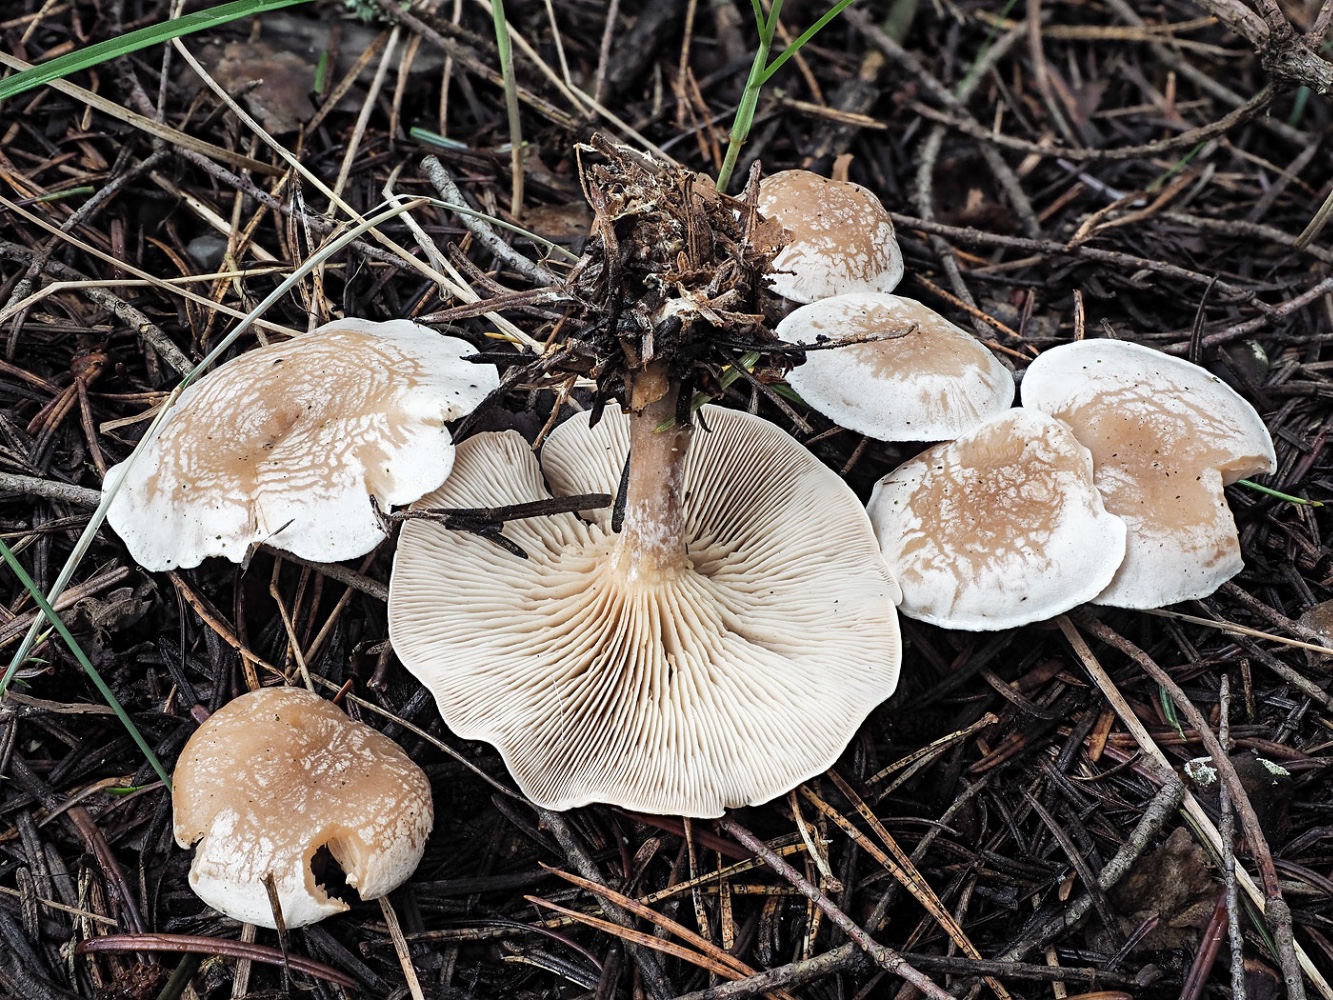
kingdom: Fungi
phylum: Basidiomycota
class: Agaricomycetes
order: Agaricales
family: Tricholomataceae
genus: Clitocybe
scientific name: Clitocybe phyllophila
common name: løv-tragthat
